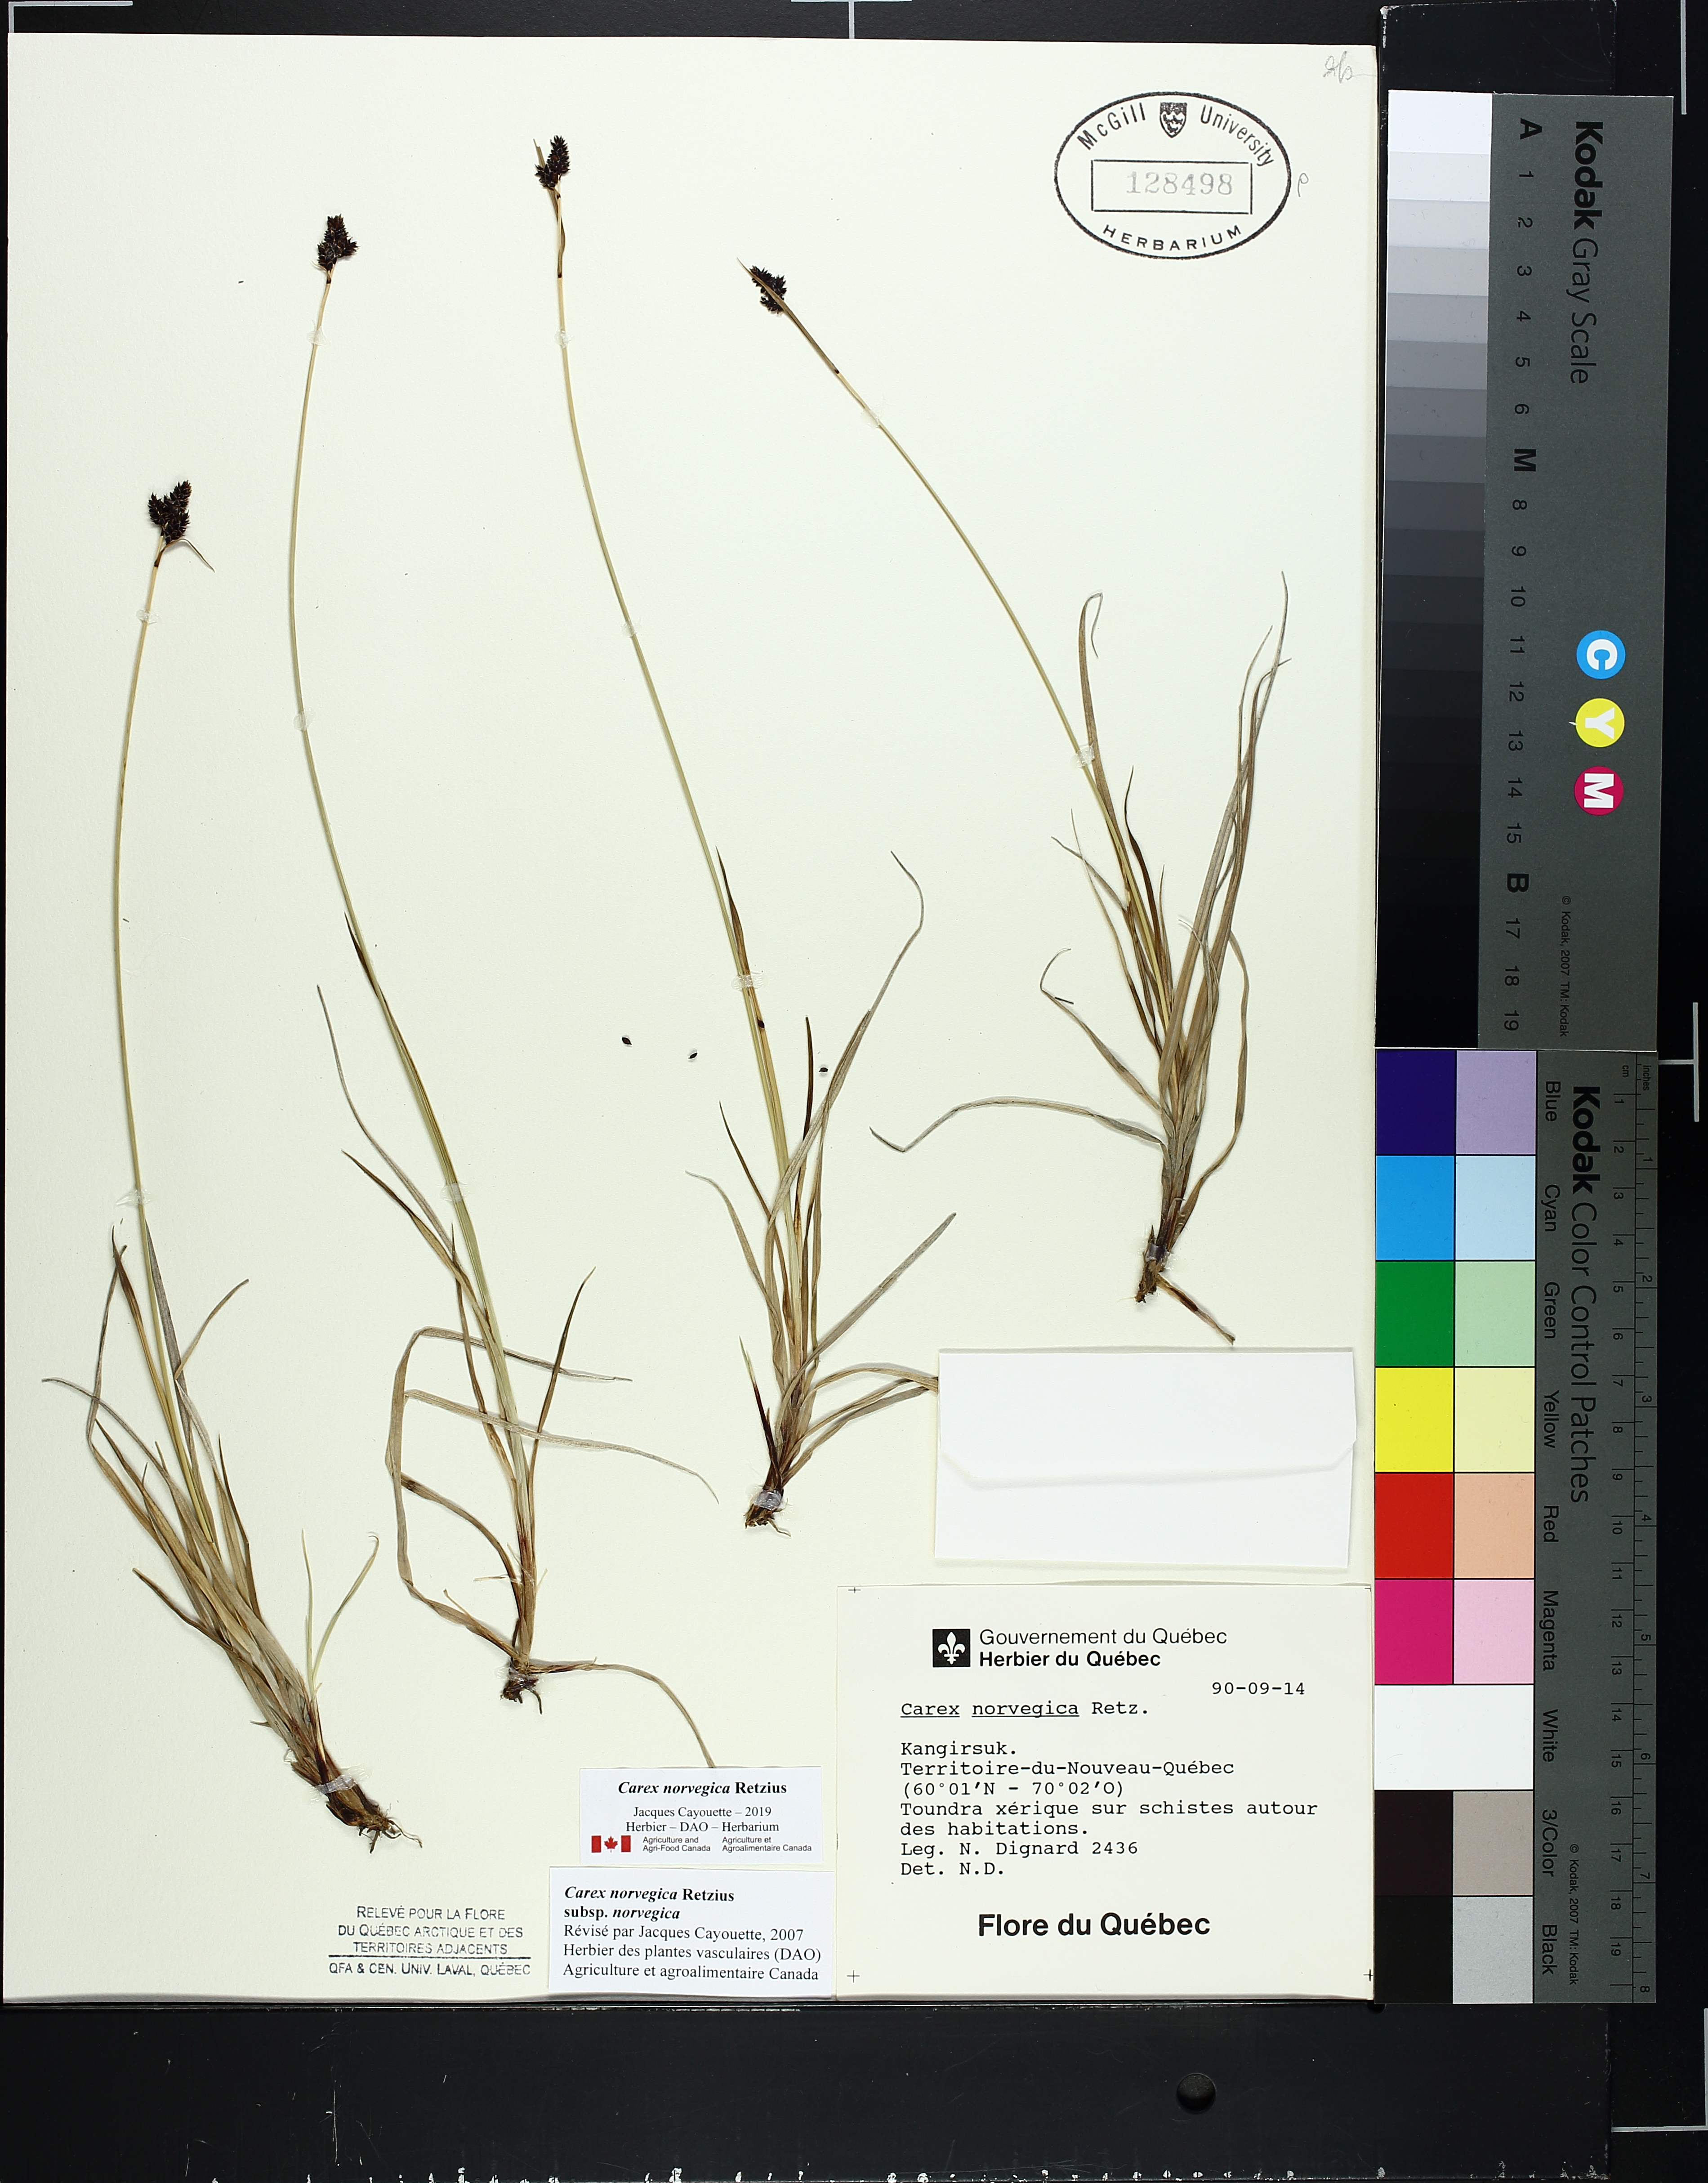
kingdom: Plantae
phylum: Tracheophyta
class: Liliopsida
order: Poales
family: Cyperaceae
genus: Carex
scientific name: Carex norvegica
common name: Close-headed alpine-sedge
